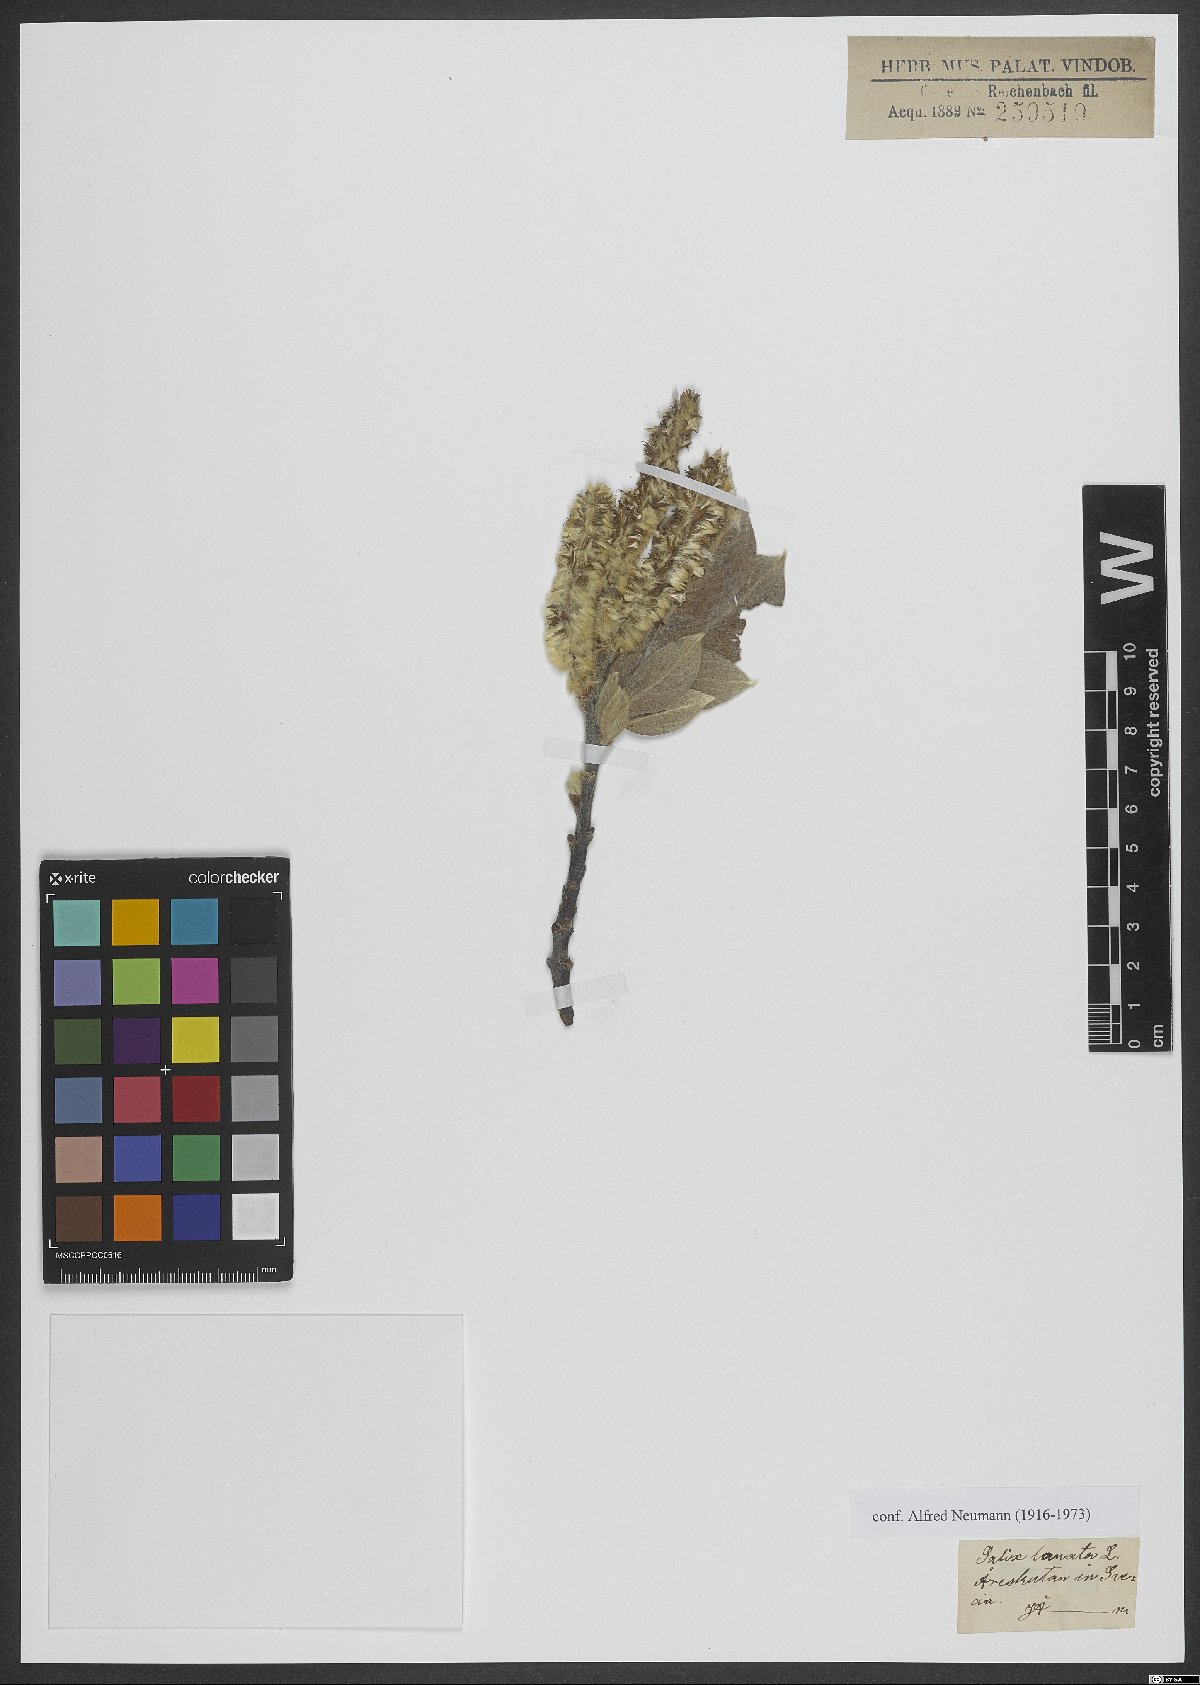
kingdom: Plantae
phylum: Tracheophyta
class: Magnoliopsida
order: Malpighiales
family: Salicaceae
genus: Salix
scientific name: Salix lanata
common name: Woolly willow
